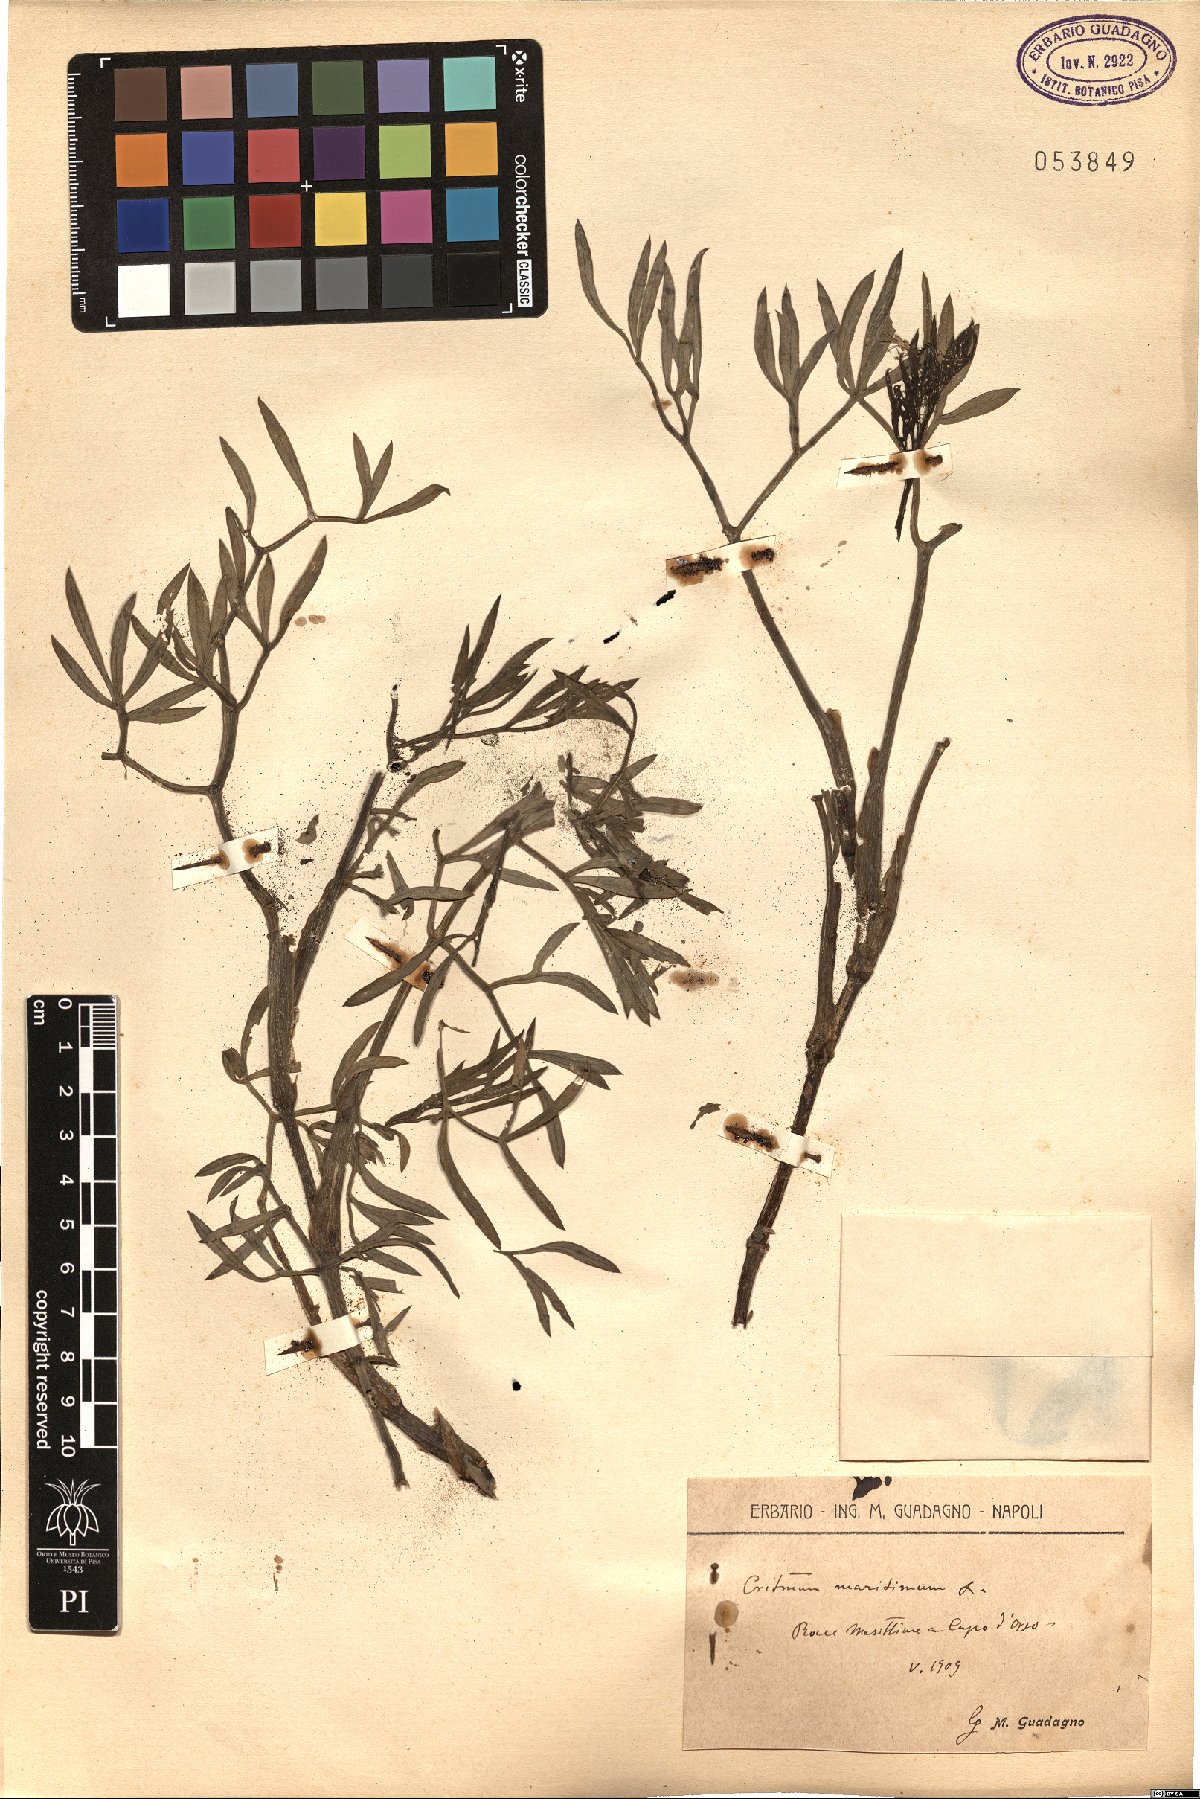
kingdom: Plantae
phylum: Tracheophyta
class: Magnoliopsida
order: Apiales
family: Apiaceae
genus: Crithmum
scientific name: Crithmum maritimum
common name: Rock samphire
